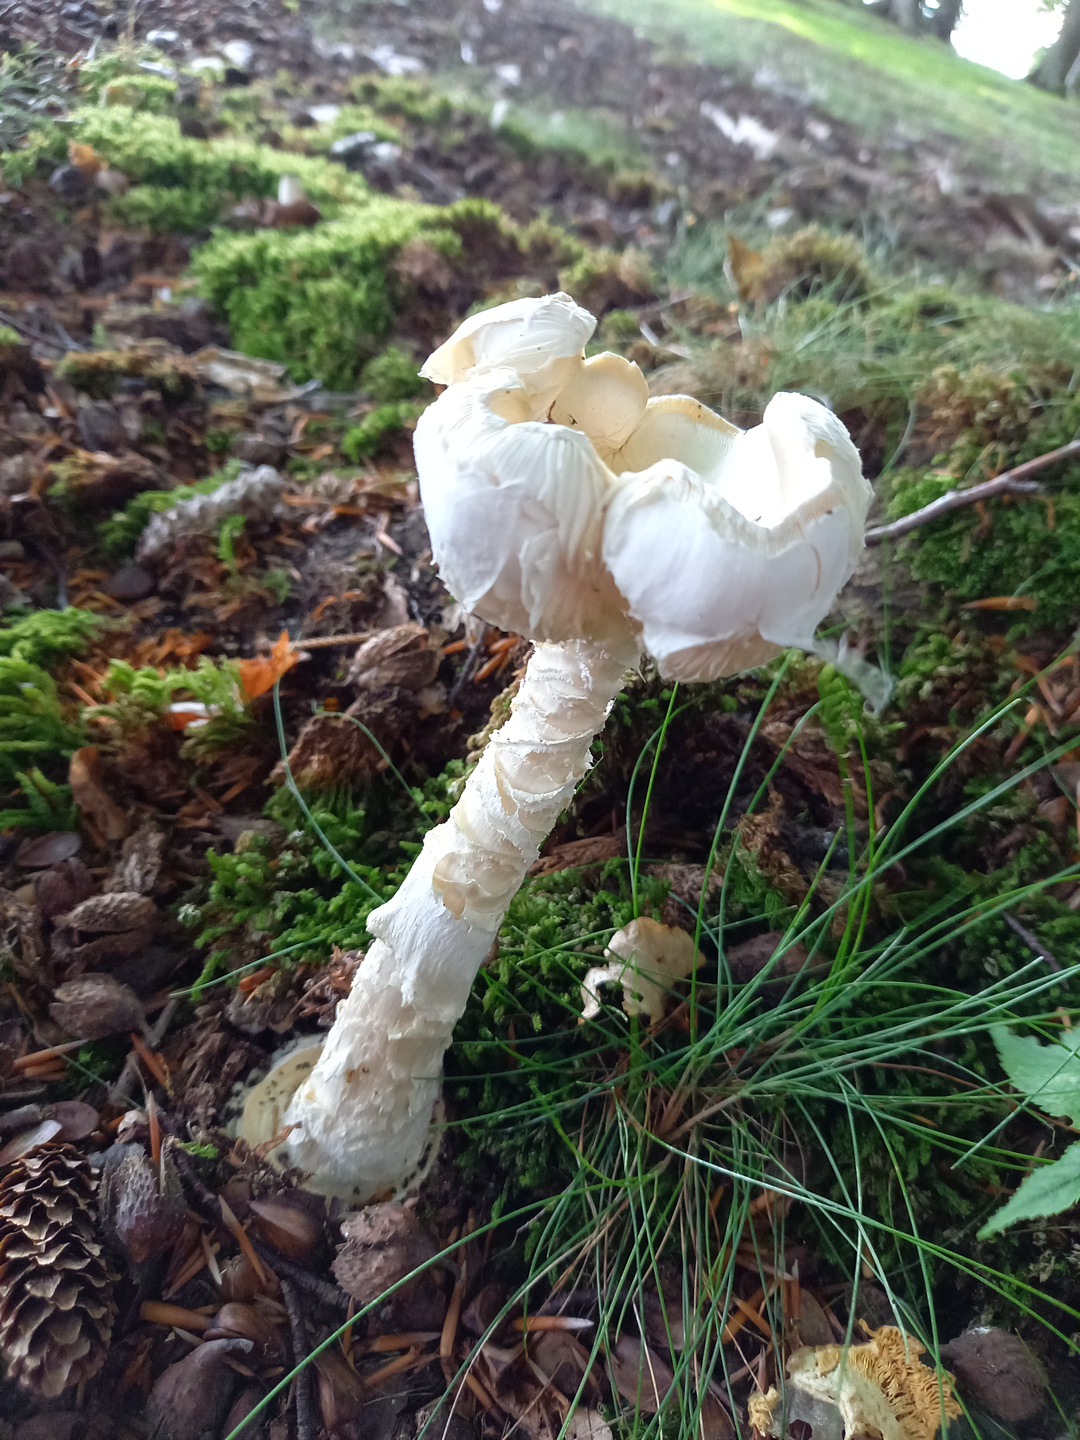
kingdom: Fungi
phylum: Basidiomycota
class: Agaricomycetes
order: Agaricales
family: Amanitaceae
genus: Amanita
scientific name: Amanita virosa
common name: snehvid fluesvamp
